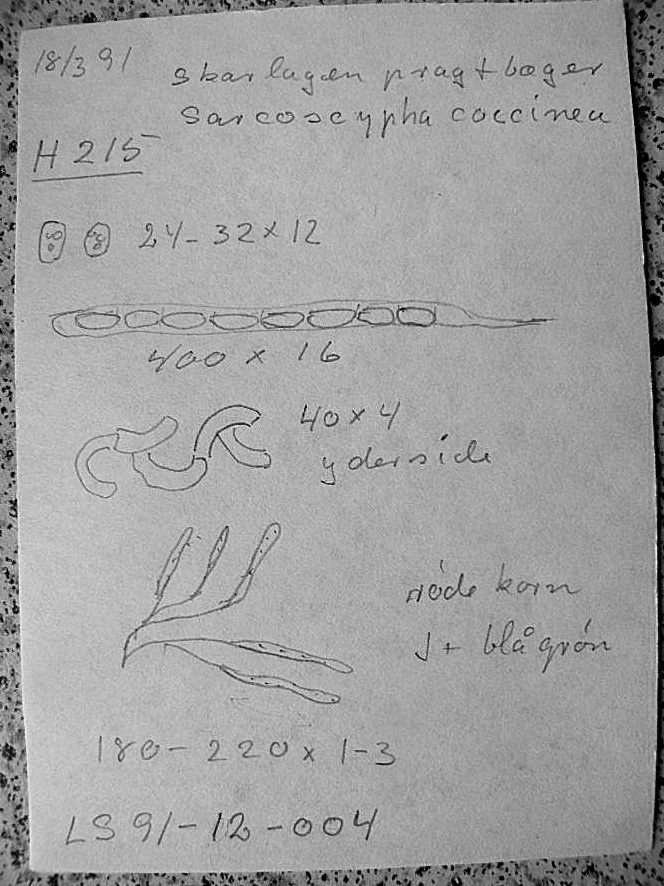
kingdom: Fungi
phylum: Ascomycota
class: Pezizomycetes
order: Pezizales
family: Sarcoscyphaceae
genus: Sarcoscypha
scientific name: Sarcoscypha austriaca
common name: krølhåret pragtbæger
